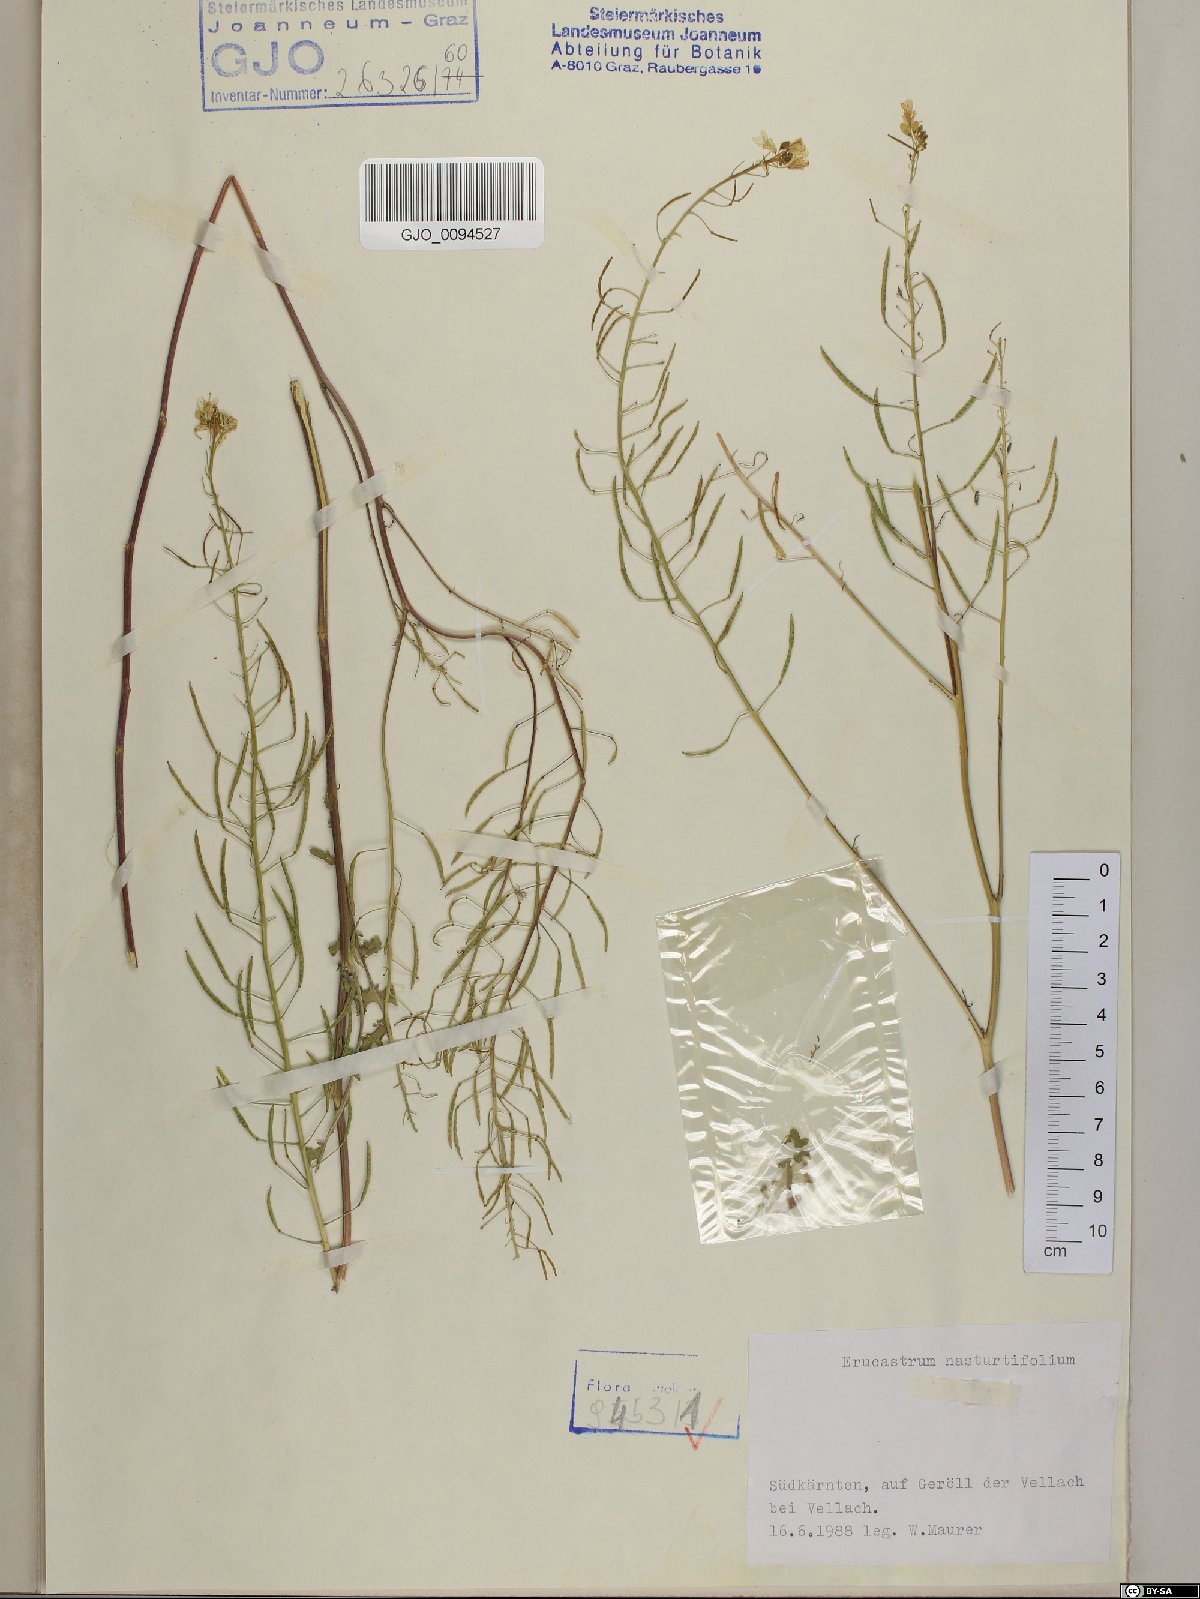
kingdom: Plantae
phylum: Tracheophyta
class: Magnoliopsida
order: Brassicales
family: Brassicaceae
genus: Erucastrum
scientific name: Erucastrum nasturtiifolium
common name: Watercress-leaf rocket
